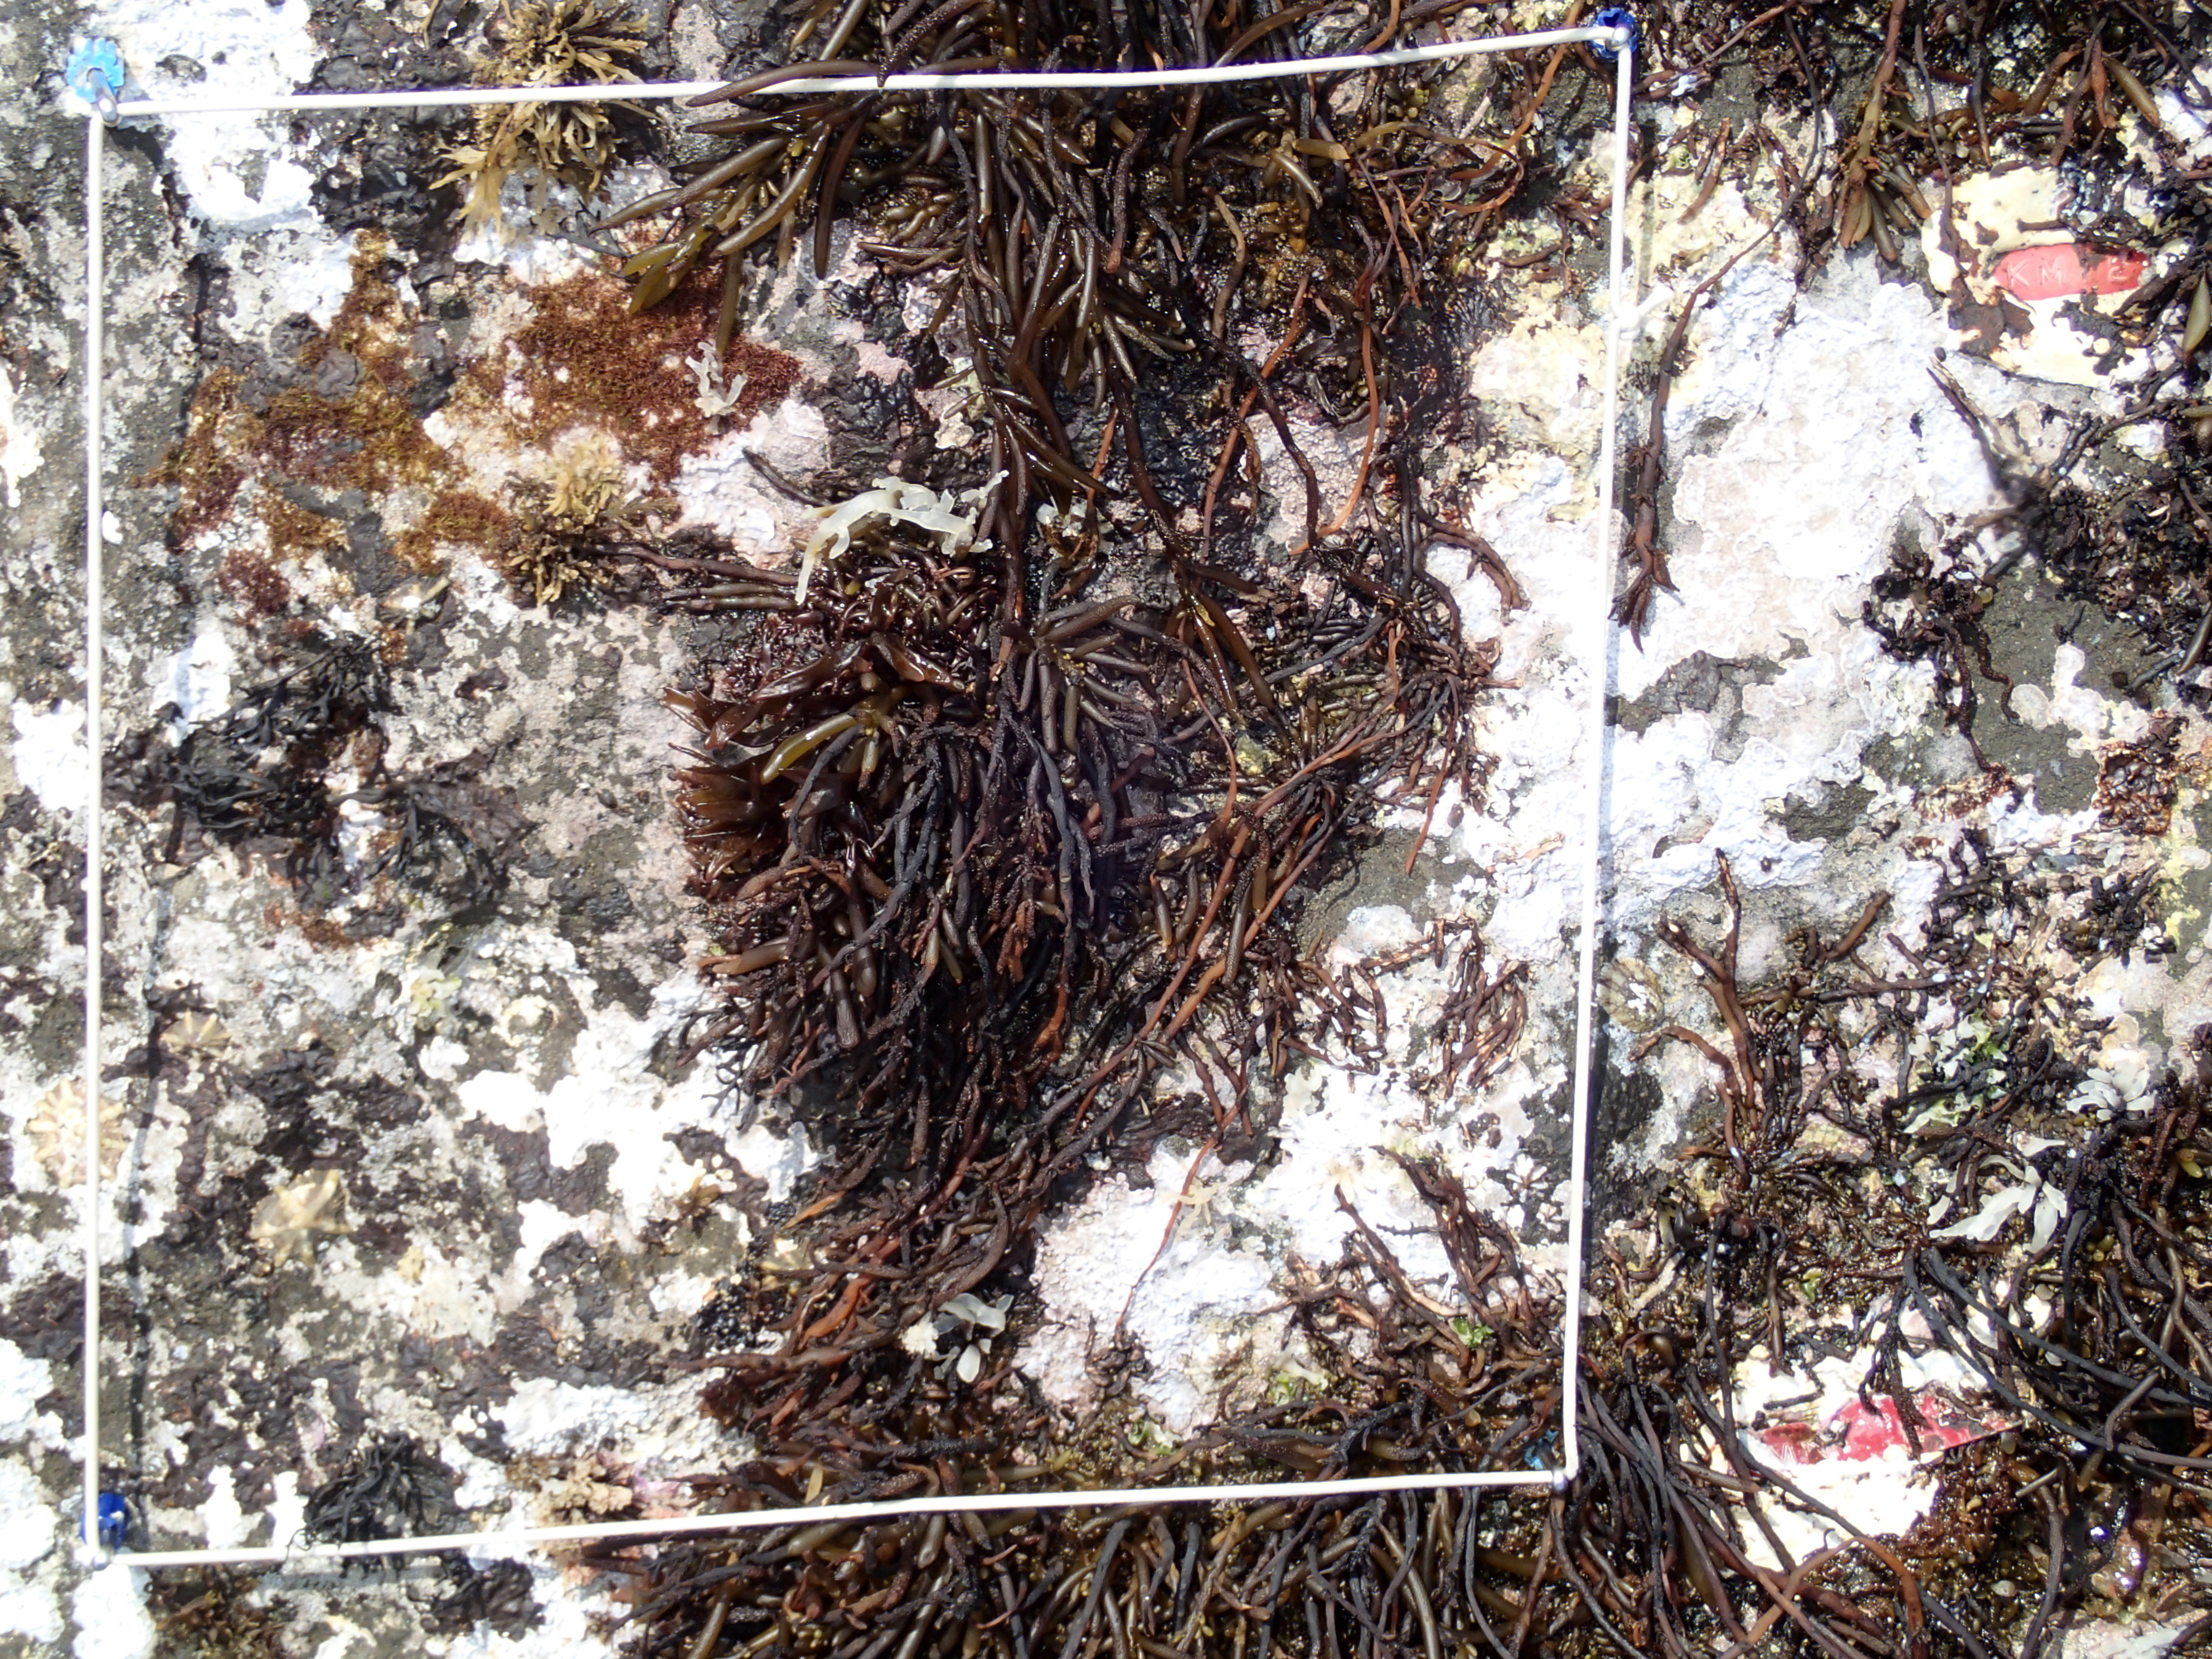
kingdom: Chromista
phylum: Ochrophyta
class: Phaeophyceae
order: Fucales
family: Sargassaceae
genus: Sargassum
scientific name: Sargassum fusiforme
